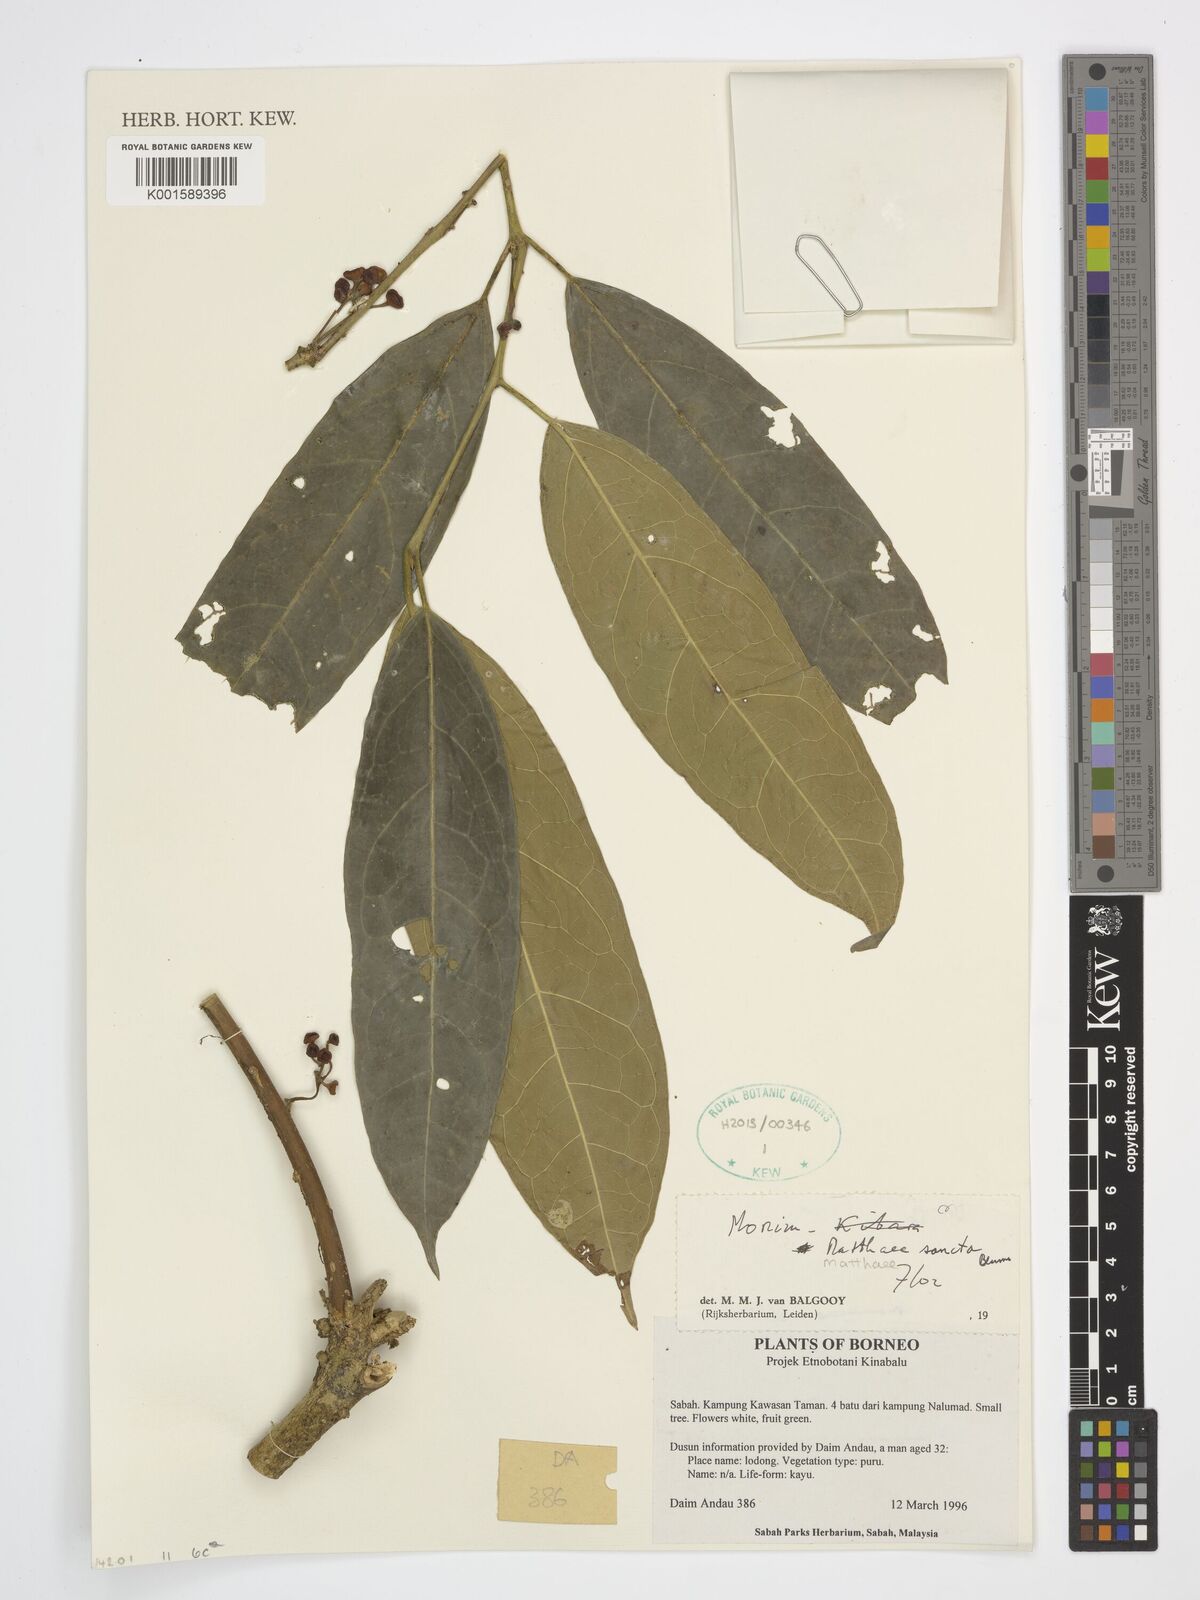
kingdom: Plantae
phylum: Tracheophyta
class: Magnoliopsida
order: Laurales
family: Monimiaceae
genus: Matthaea
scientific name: Matthaea sancta
